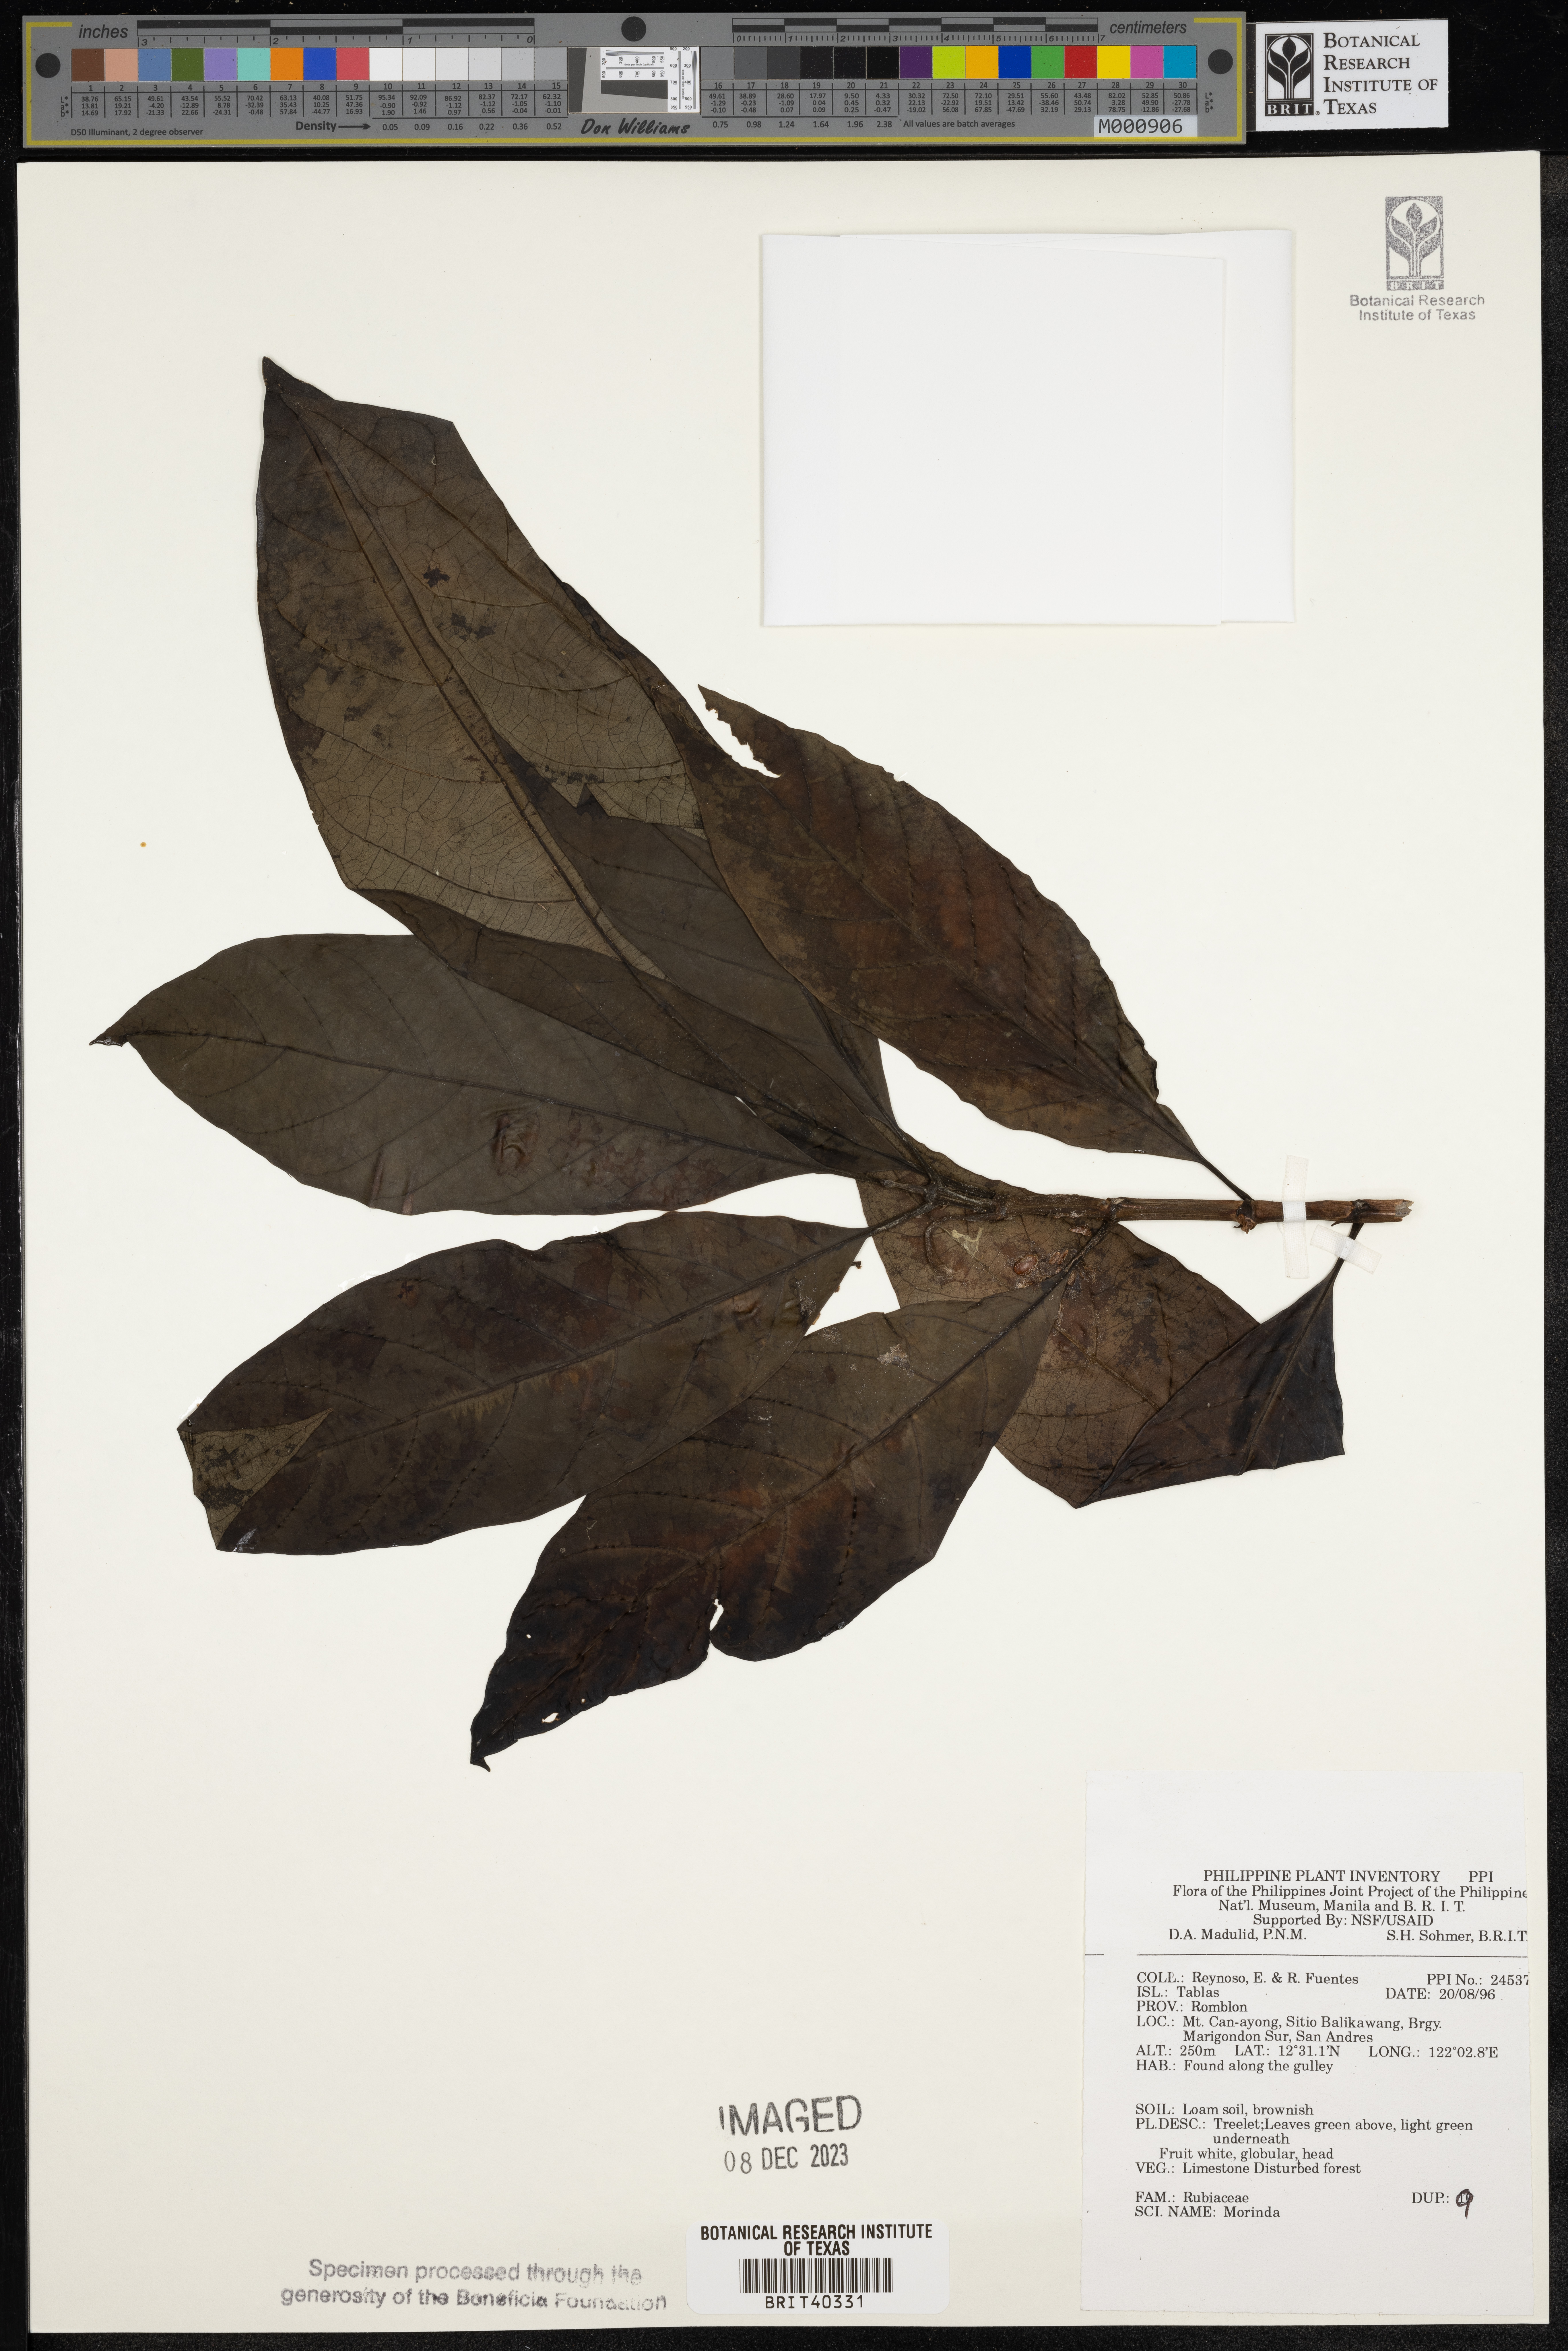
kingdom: Plantae
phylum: Tracheophyta
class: Magnoliopsida
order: Gentianales
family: Rubiaceae
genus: Morinda
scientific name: Morinda
